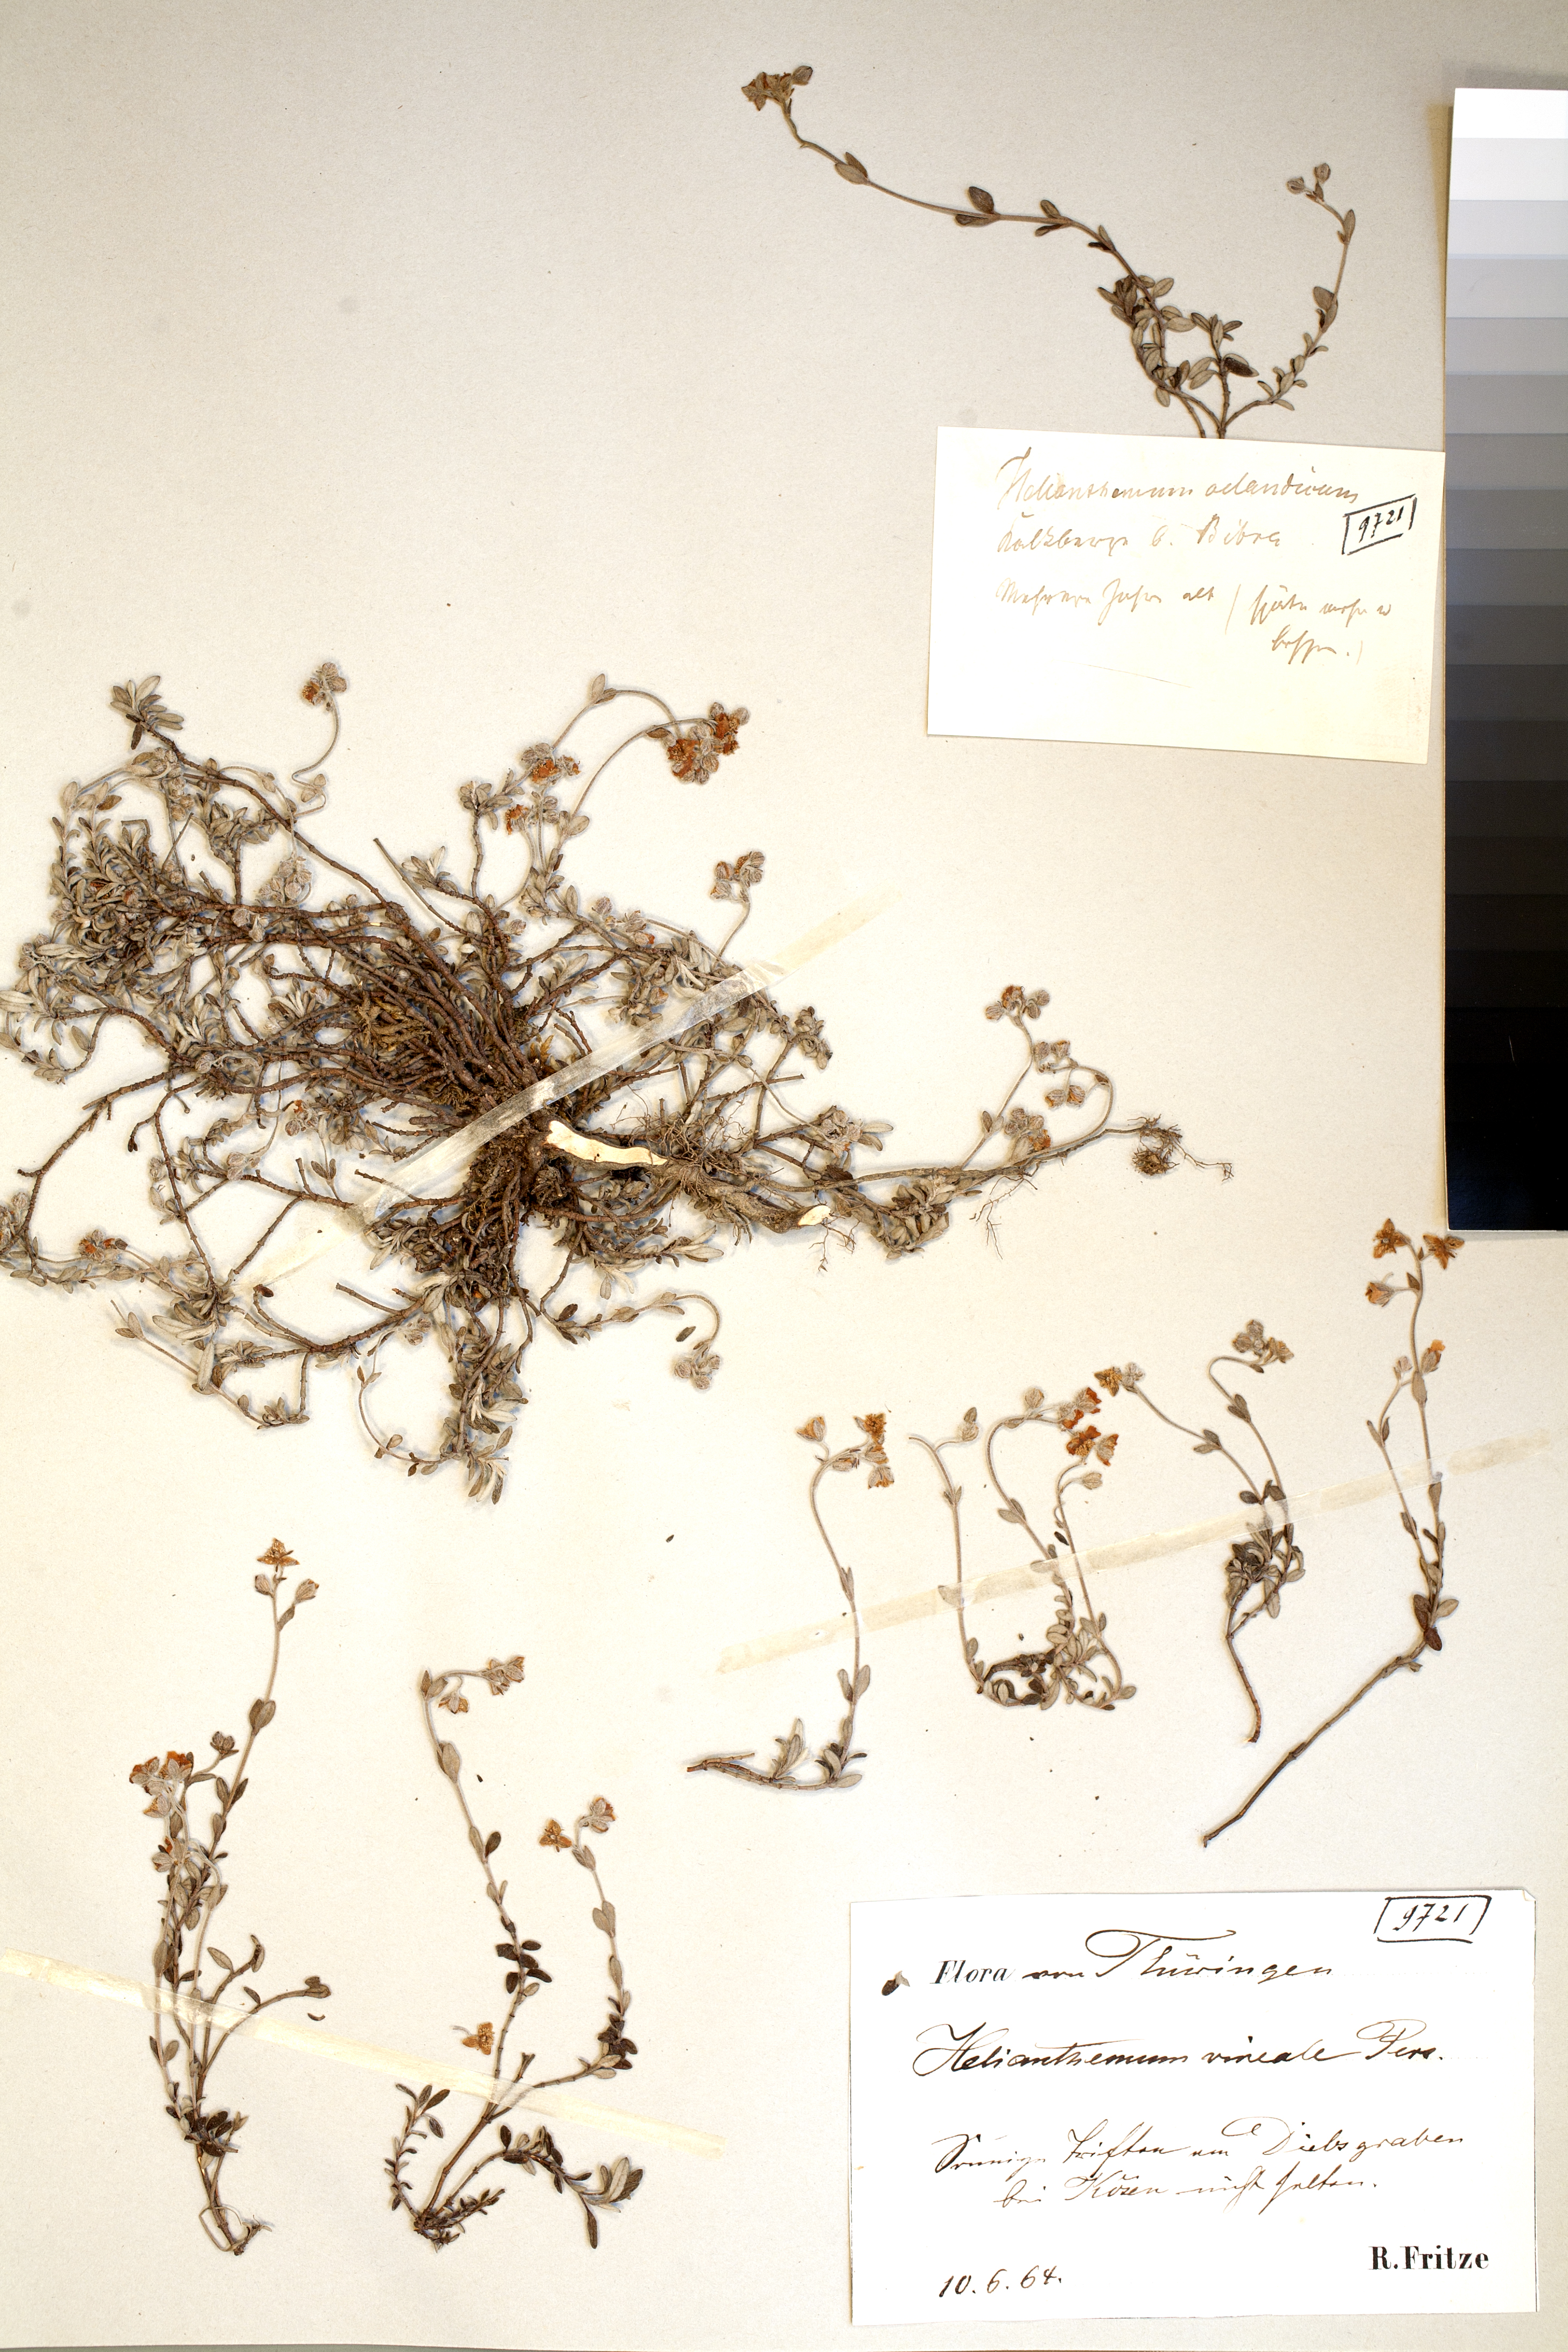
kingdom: Plantae
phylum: Tracheophyta
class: Magnoliopsida
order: Malvales
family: Cistaceae
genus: Helianthemum
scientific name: Helianthemum oelandicum
